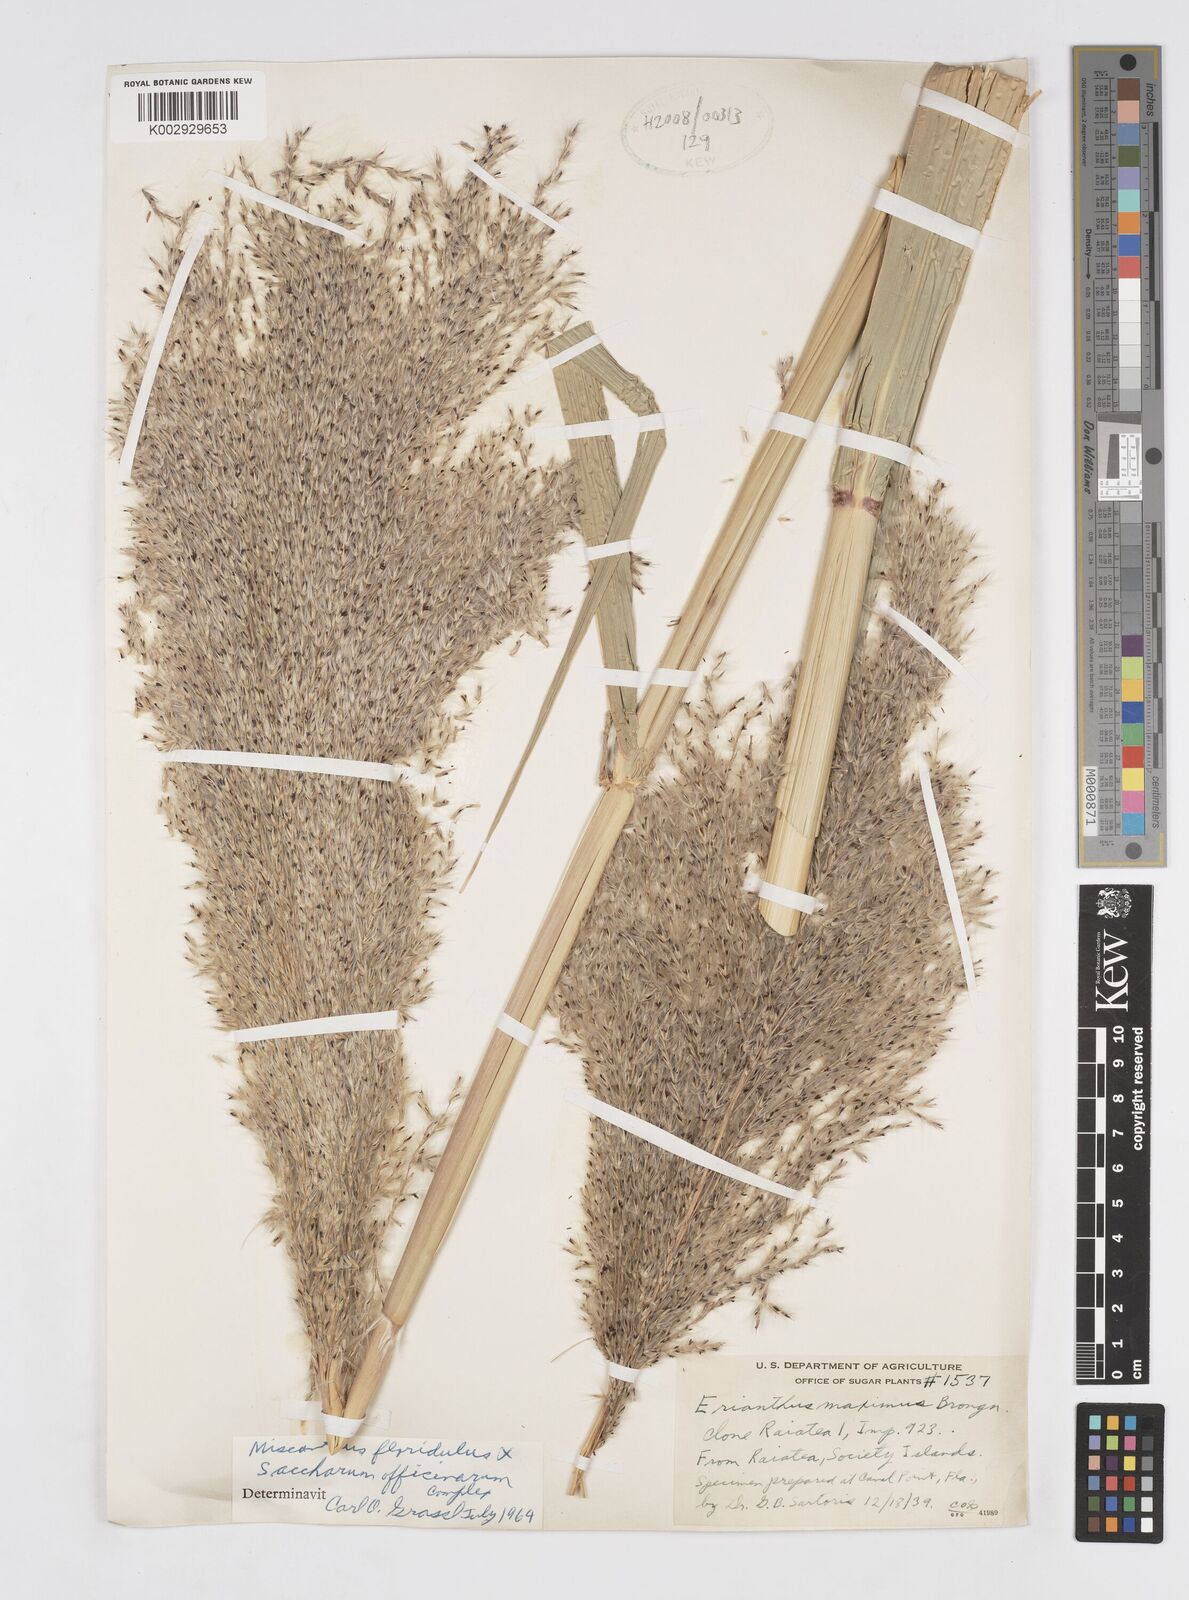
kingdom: Plantae
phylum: Tracheophyta
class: Liliopsida
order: Poales
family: Poaceae
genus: Saccharum
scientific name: Saccharum officinarum
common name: Sugarcane
